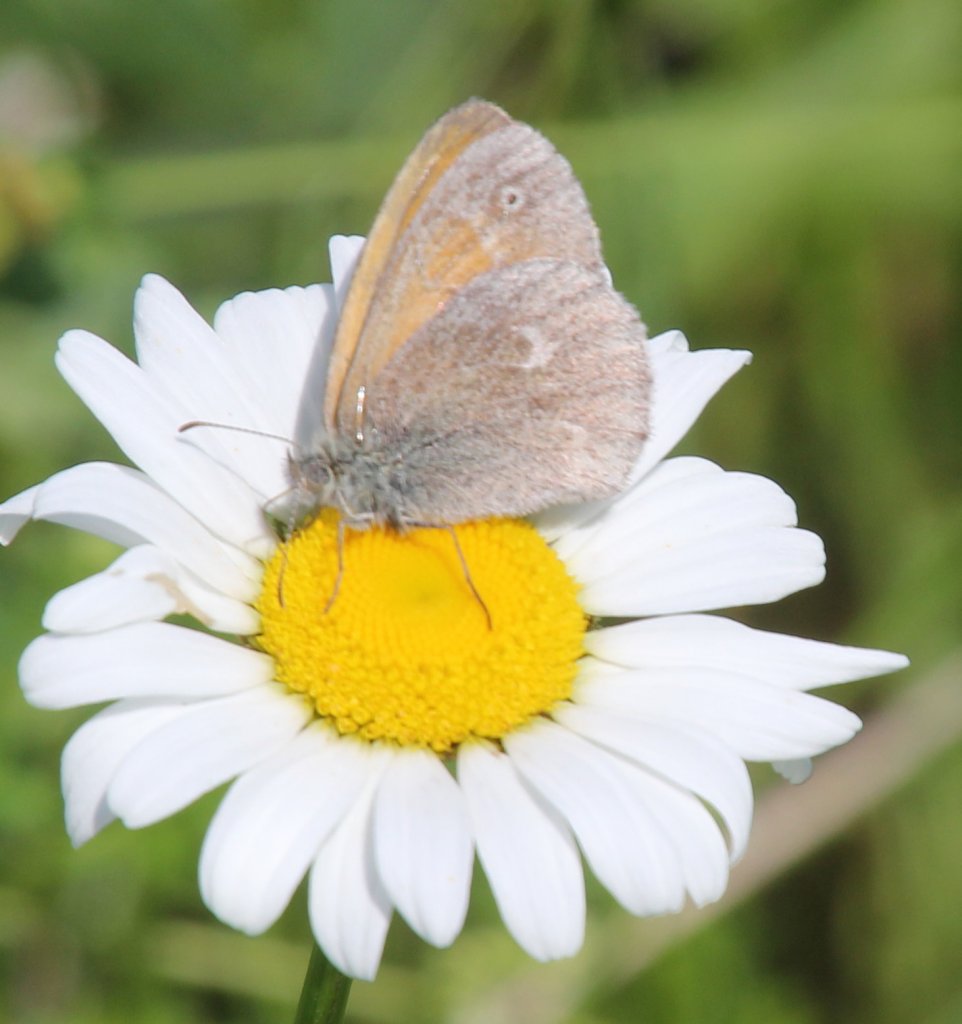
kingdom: Animalia
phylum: Arthropoda
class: Insecta
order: Lepidoptera
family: Nymphalidae
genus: Coenonympha
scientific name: Coenonympha tullia
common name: Large Heath
